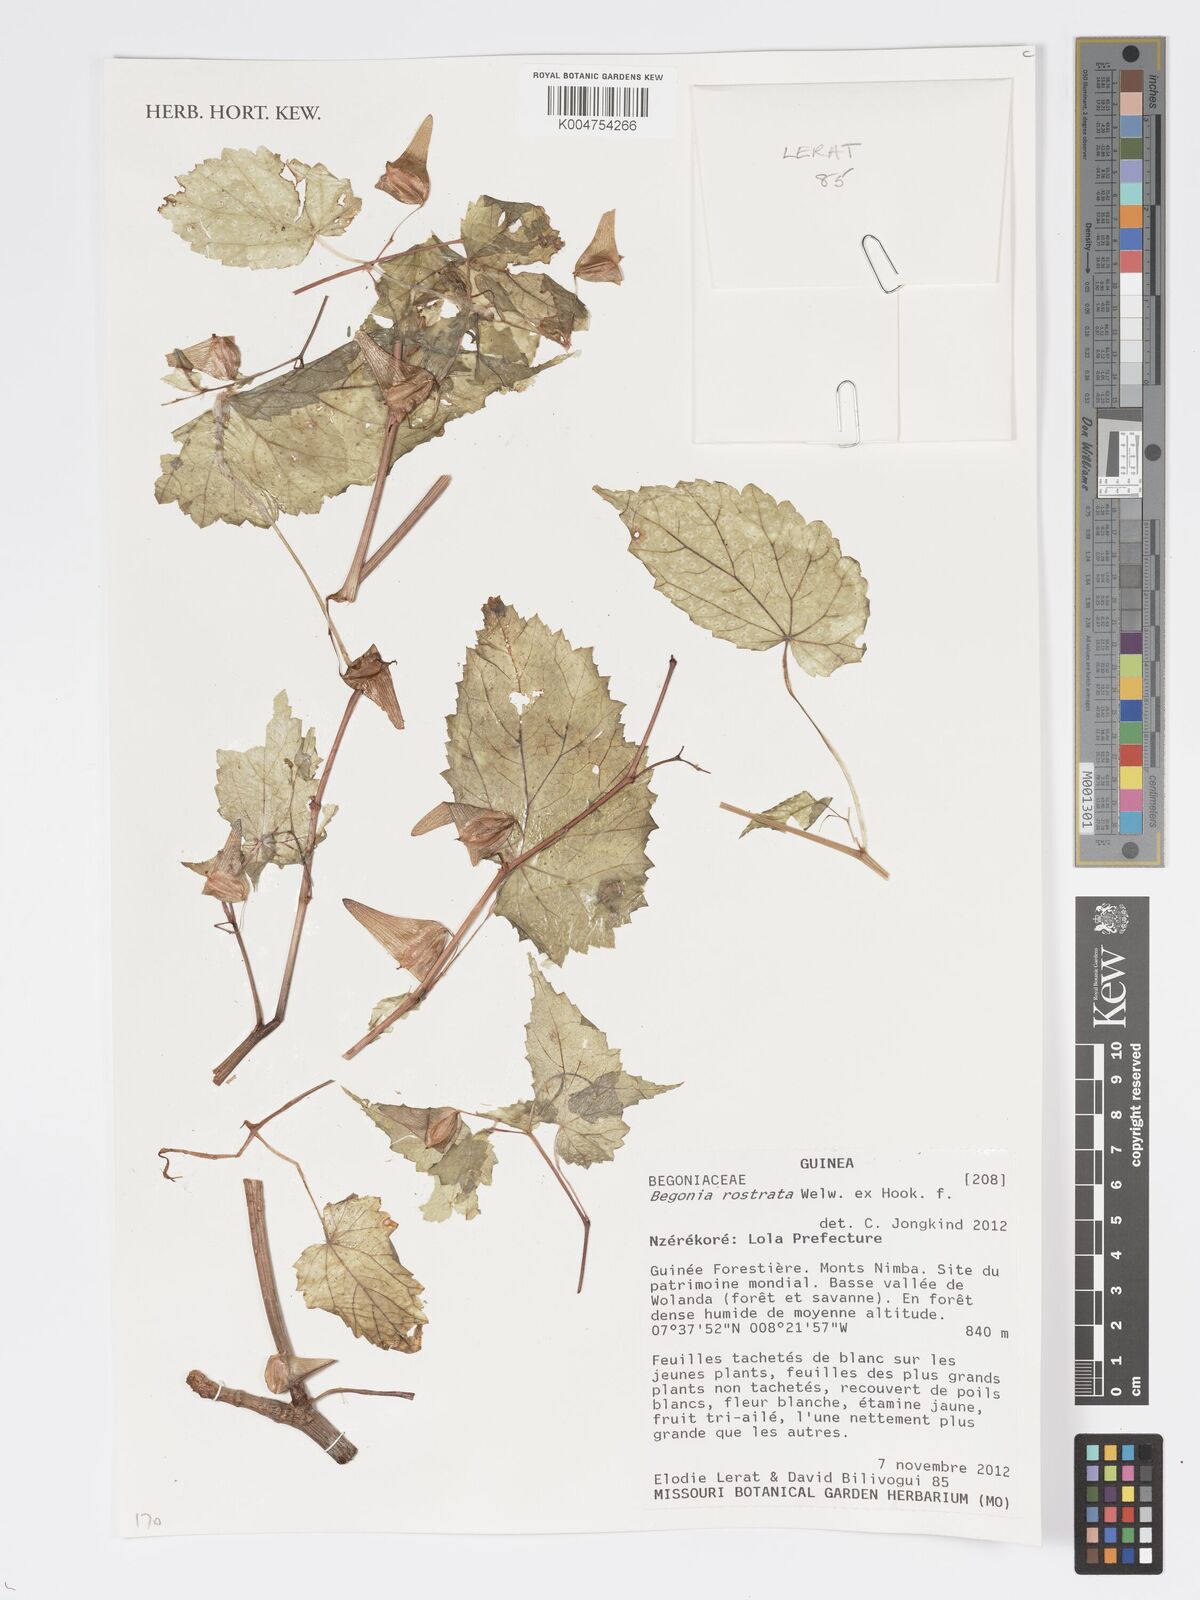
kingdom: Plantae
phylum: Tracheophyta
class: Magnoliopsida
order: Cucurbitales
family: Begoniaceae
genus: Begonia
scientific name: Begonia rostrata
